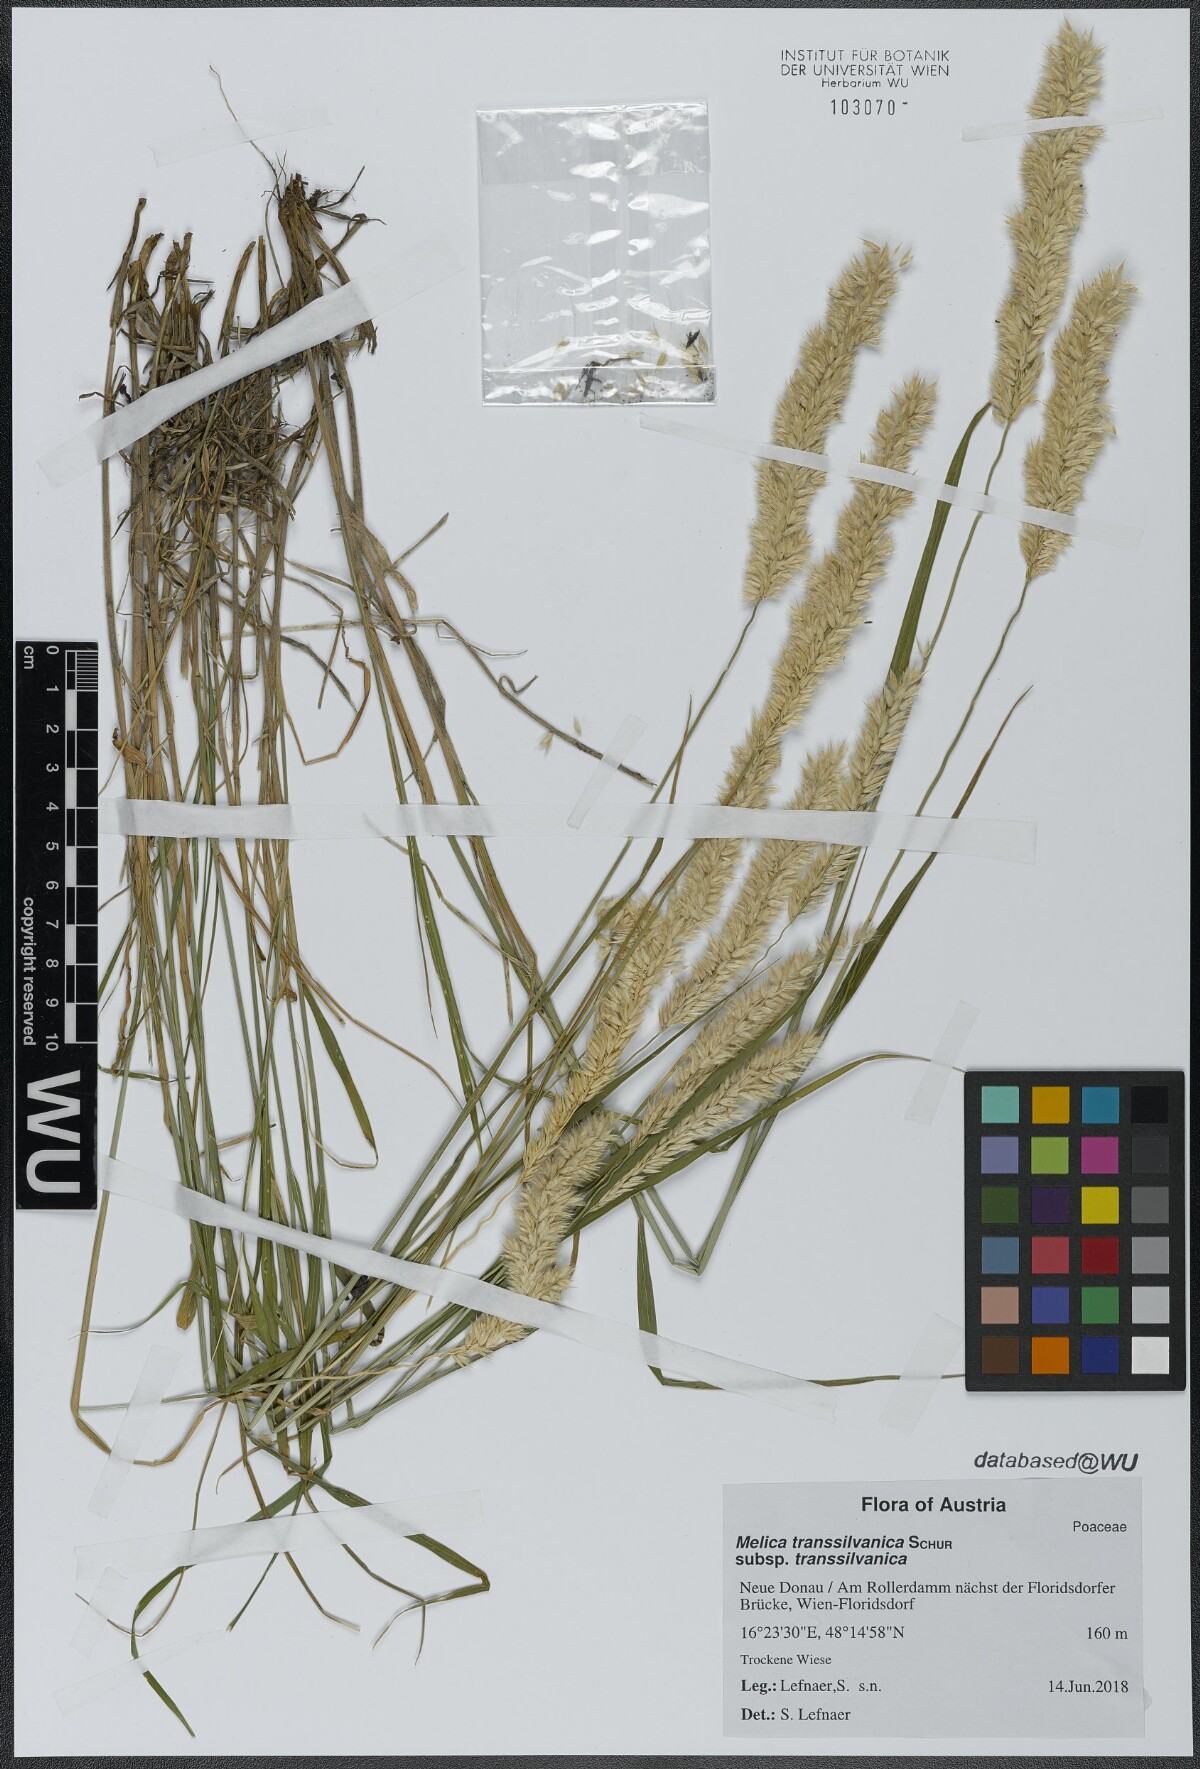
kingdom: Plantae
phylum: Tracheophyta
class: Liliopsida
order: Poales
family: Poaceae
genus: Melica
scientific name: Melica transsilvanica
